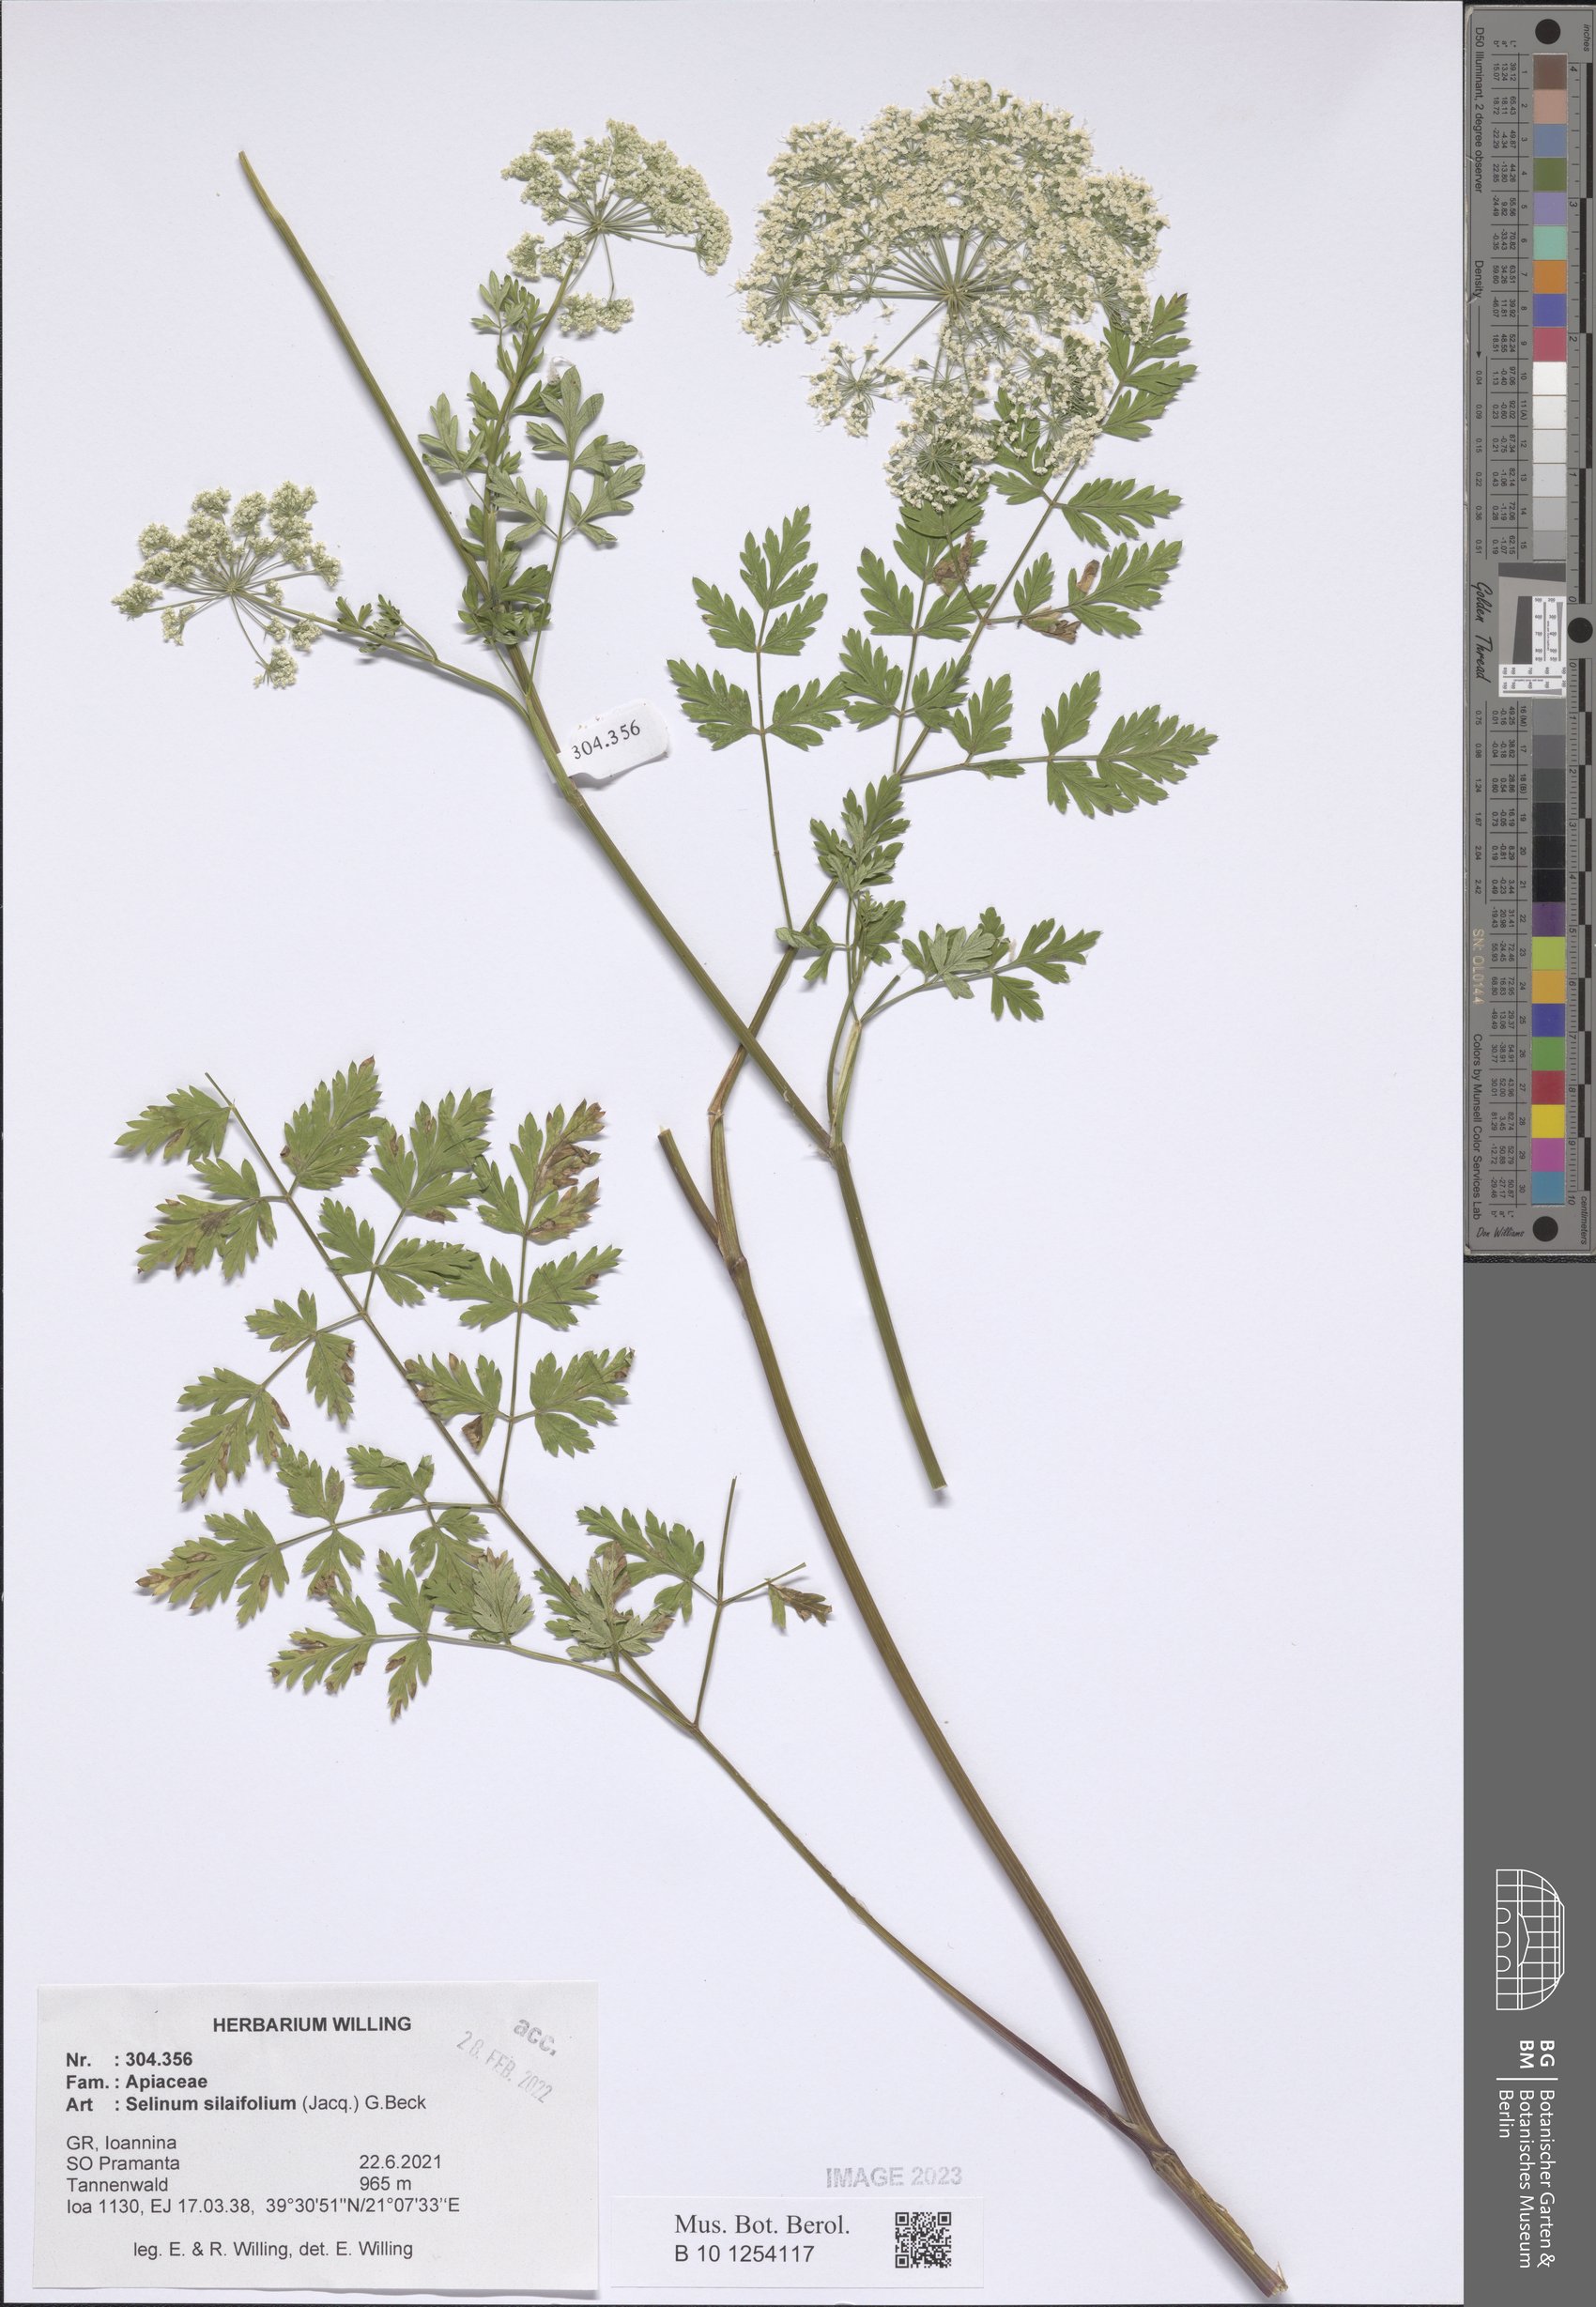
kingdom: Plantae
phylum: Tracheophyta
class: Magnoliopsida
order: Apiales
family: Apiaceae
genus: Katapsuxis
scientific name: Katapsuxis silaifolia
